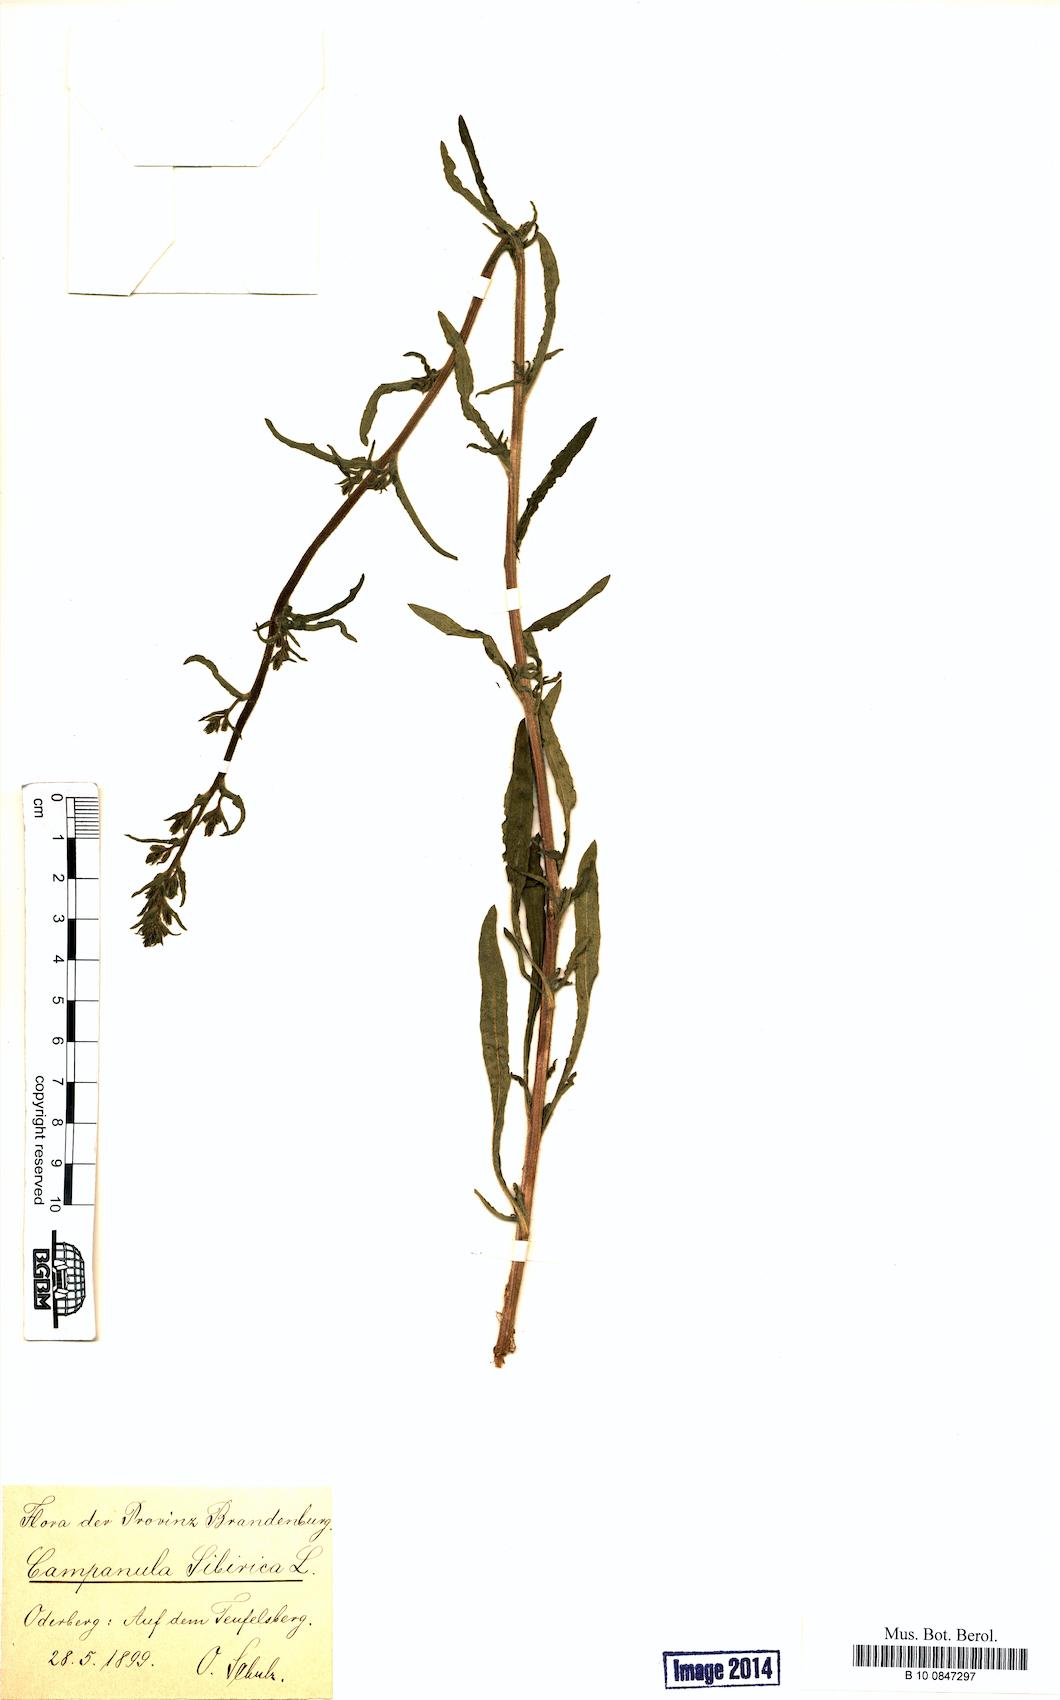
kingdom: Plantae
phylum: Tracheophyta
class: Magnoliopsida
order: Asterales
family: Campanulaceae
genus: Campanula
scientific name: Campanula sibirica
